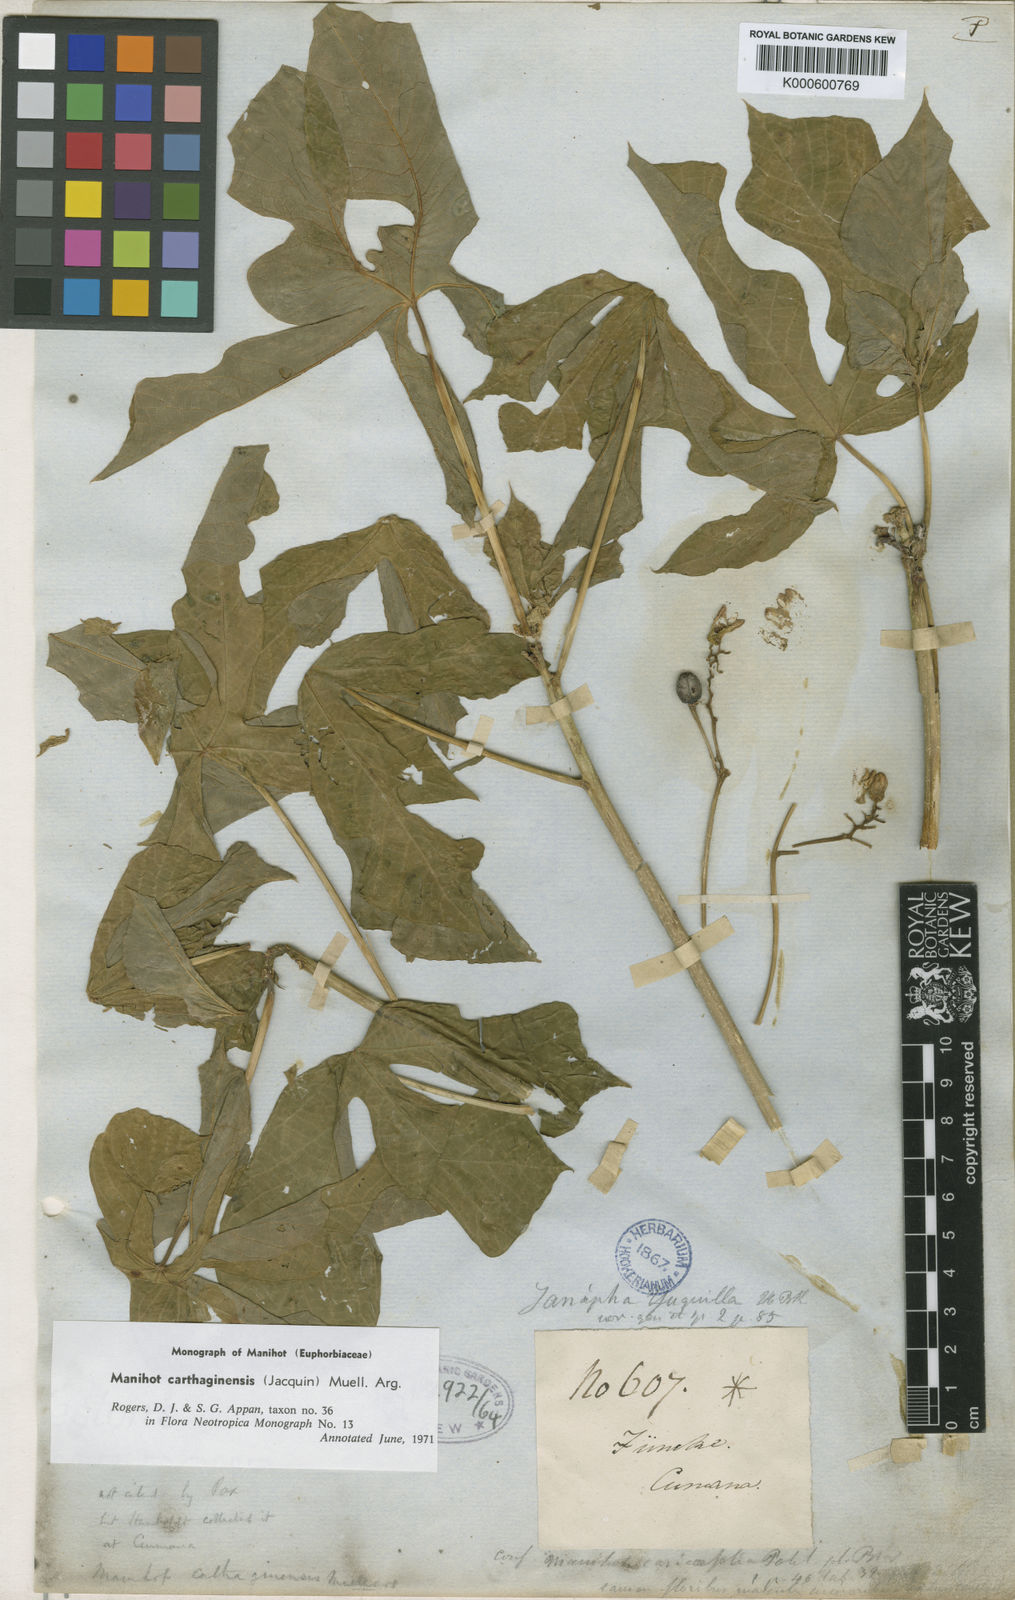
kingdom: Plantae
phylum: Tracheophyta
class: Magnoliopsida
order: Malpighiales
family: Euphorbiaceae
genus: Manihot
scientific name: Manihot
